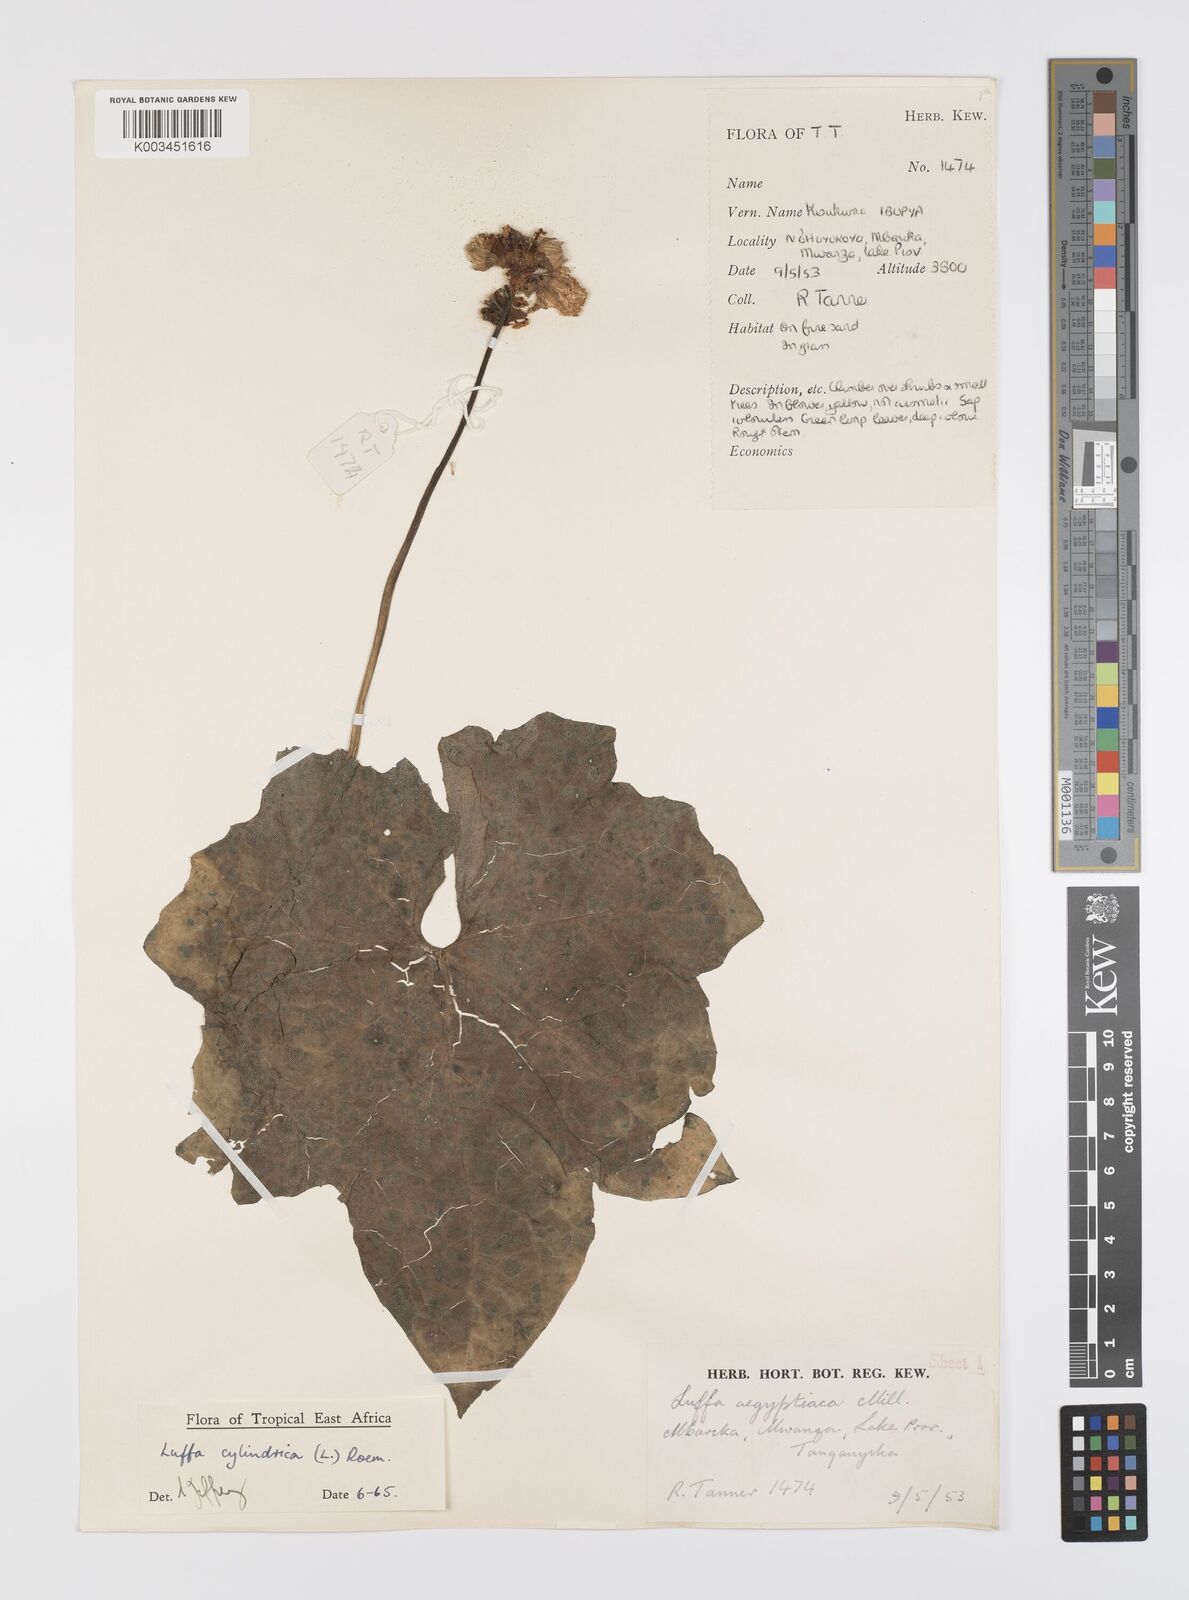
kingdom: Plantae
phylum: Tracheophyta
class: Magnoliopsida
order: Cucurbitales
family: Cucurbitaceae
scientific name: Cucurbitaceae
